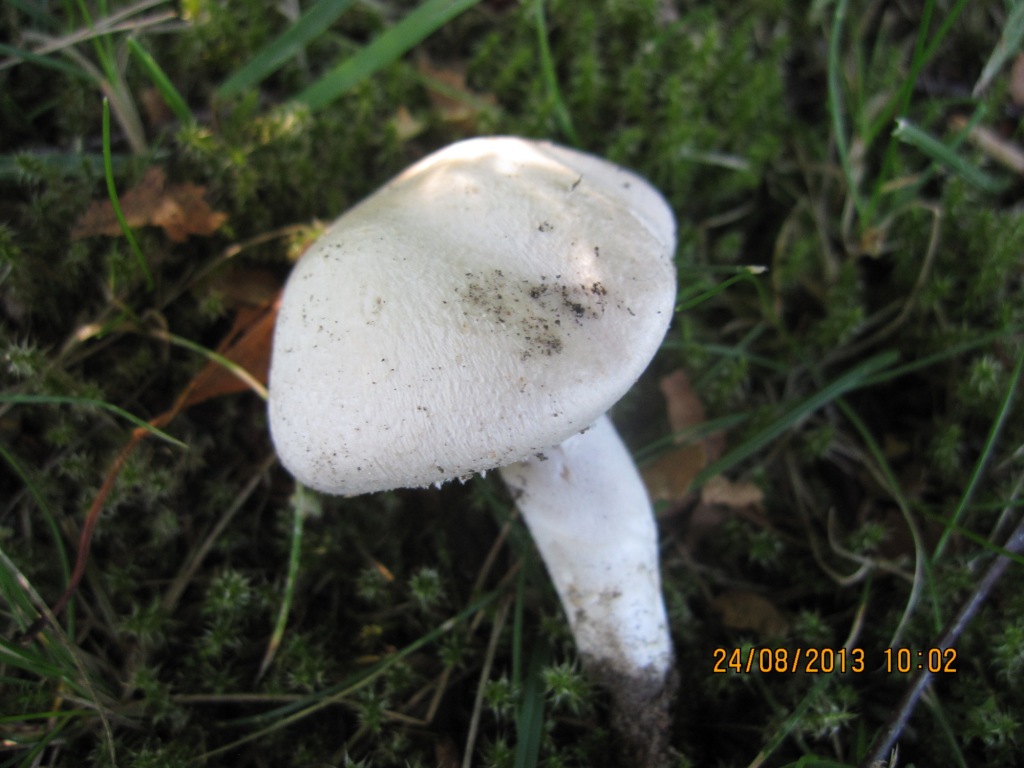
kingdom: Fungi
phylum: Basidiomycota
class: Agaricomycetes
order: Agaricales
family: Agaricaceae
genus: Agaricus
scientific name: Agaricus campestris
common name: mark-champignon
